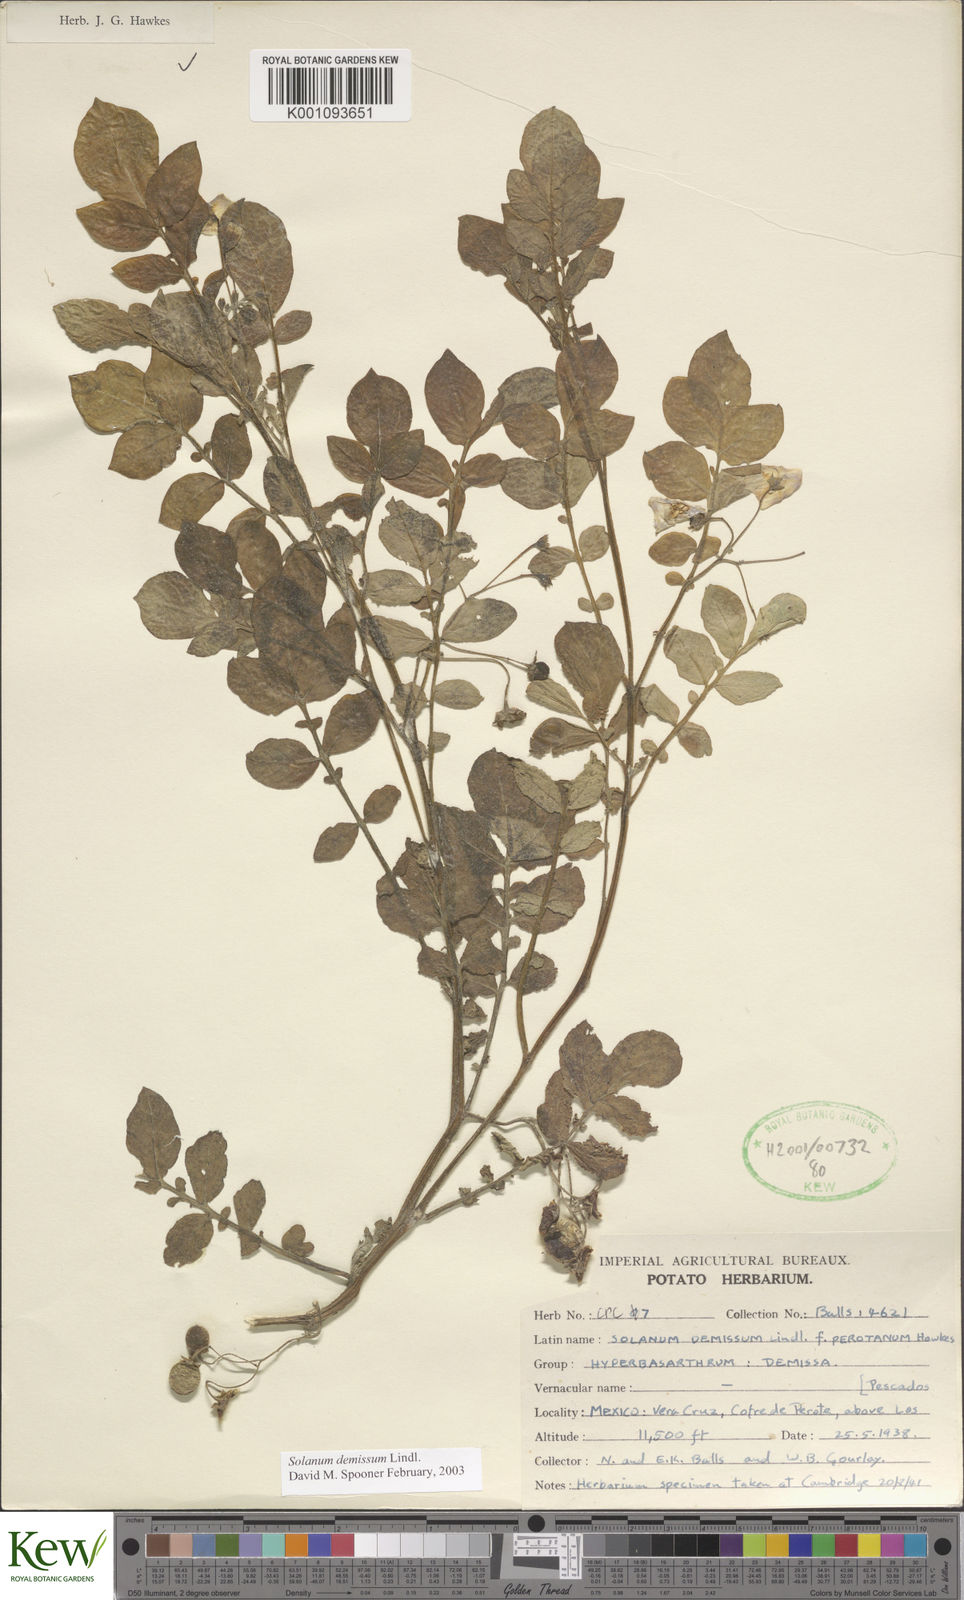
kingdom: Plantae
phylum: Tracheophyta
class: Magnoliopsida
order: Solanales
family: Solanaceae
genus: Solanum
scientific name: Solanum demissum
